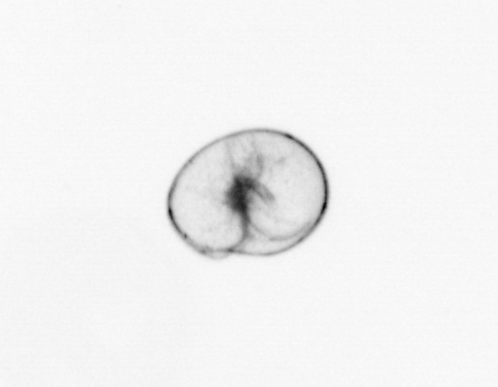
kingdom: Chromista
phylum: Myzozoa
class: Dinophyceae
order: Noctilucales
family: Noctilucaceae
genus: Noctiluca
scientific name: Noctiluca scintillans
